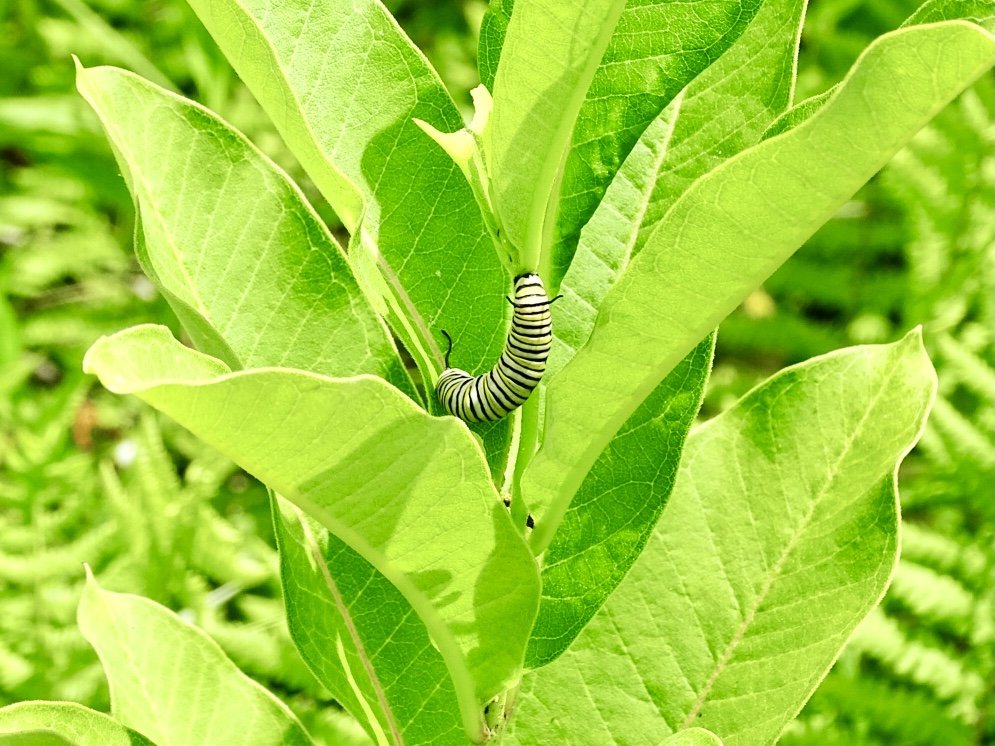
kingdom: Animalia
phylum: Arthropoda
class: Insecta
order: Lepidoptera
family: Nymphalidae
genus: Danaus
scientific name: Danaus plexippus
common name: Monarch
